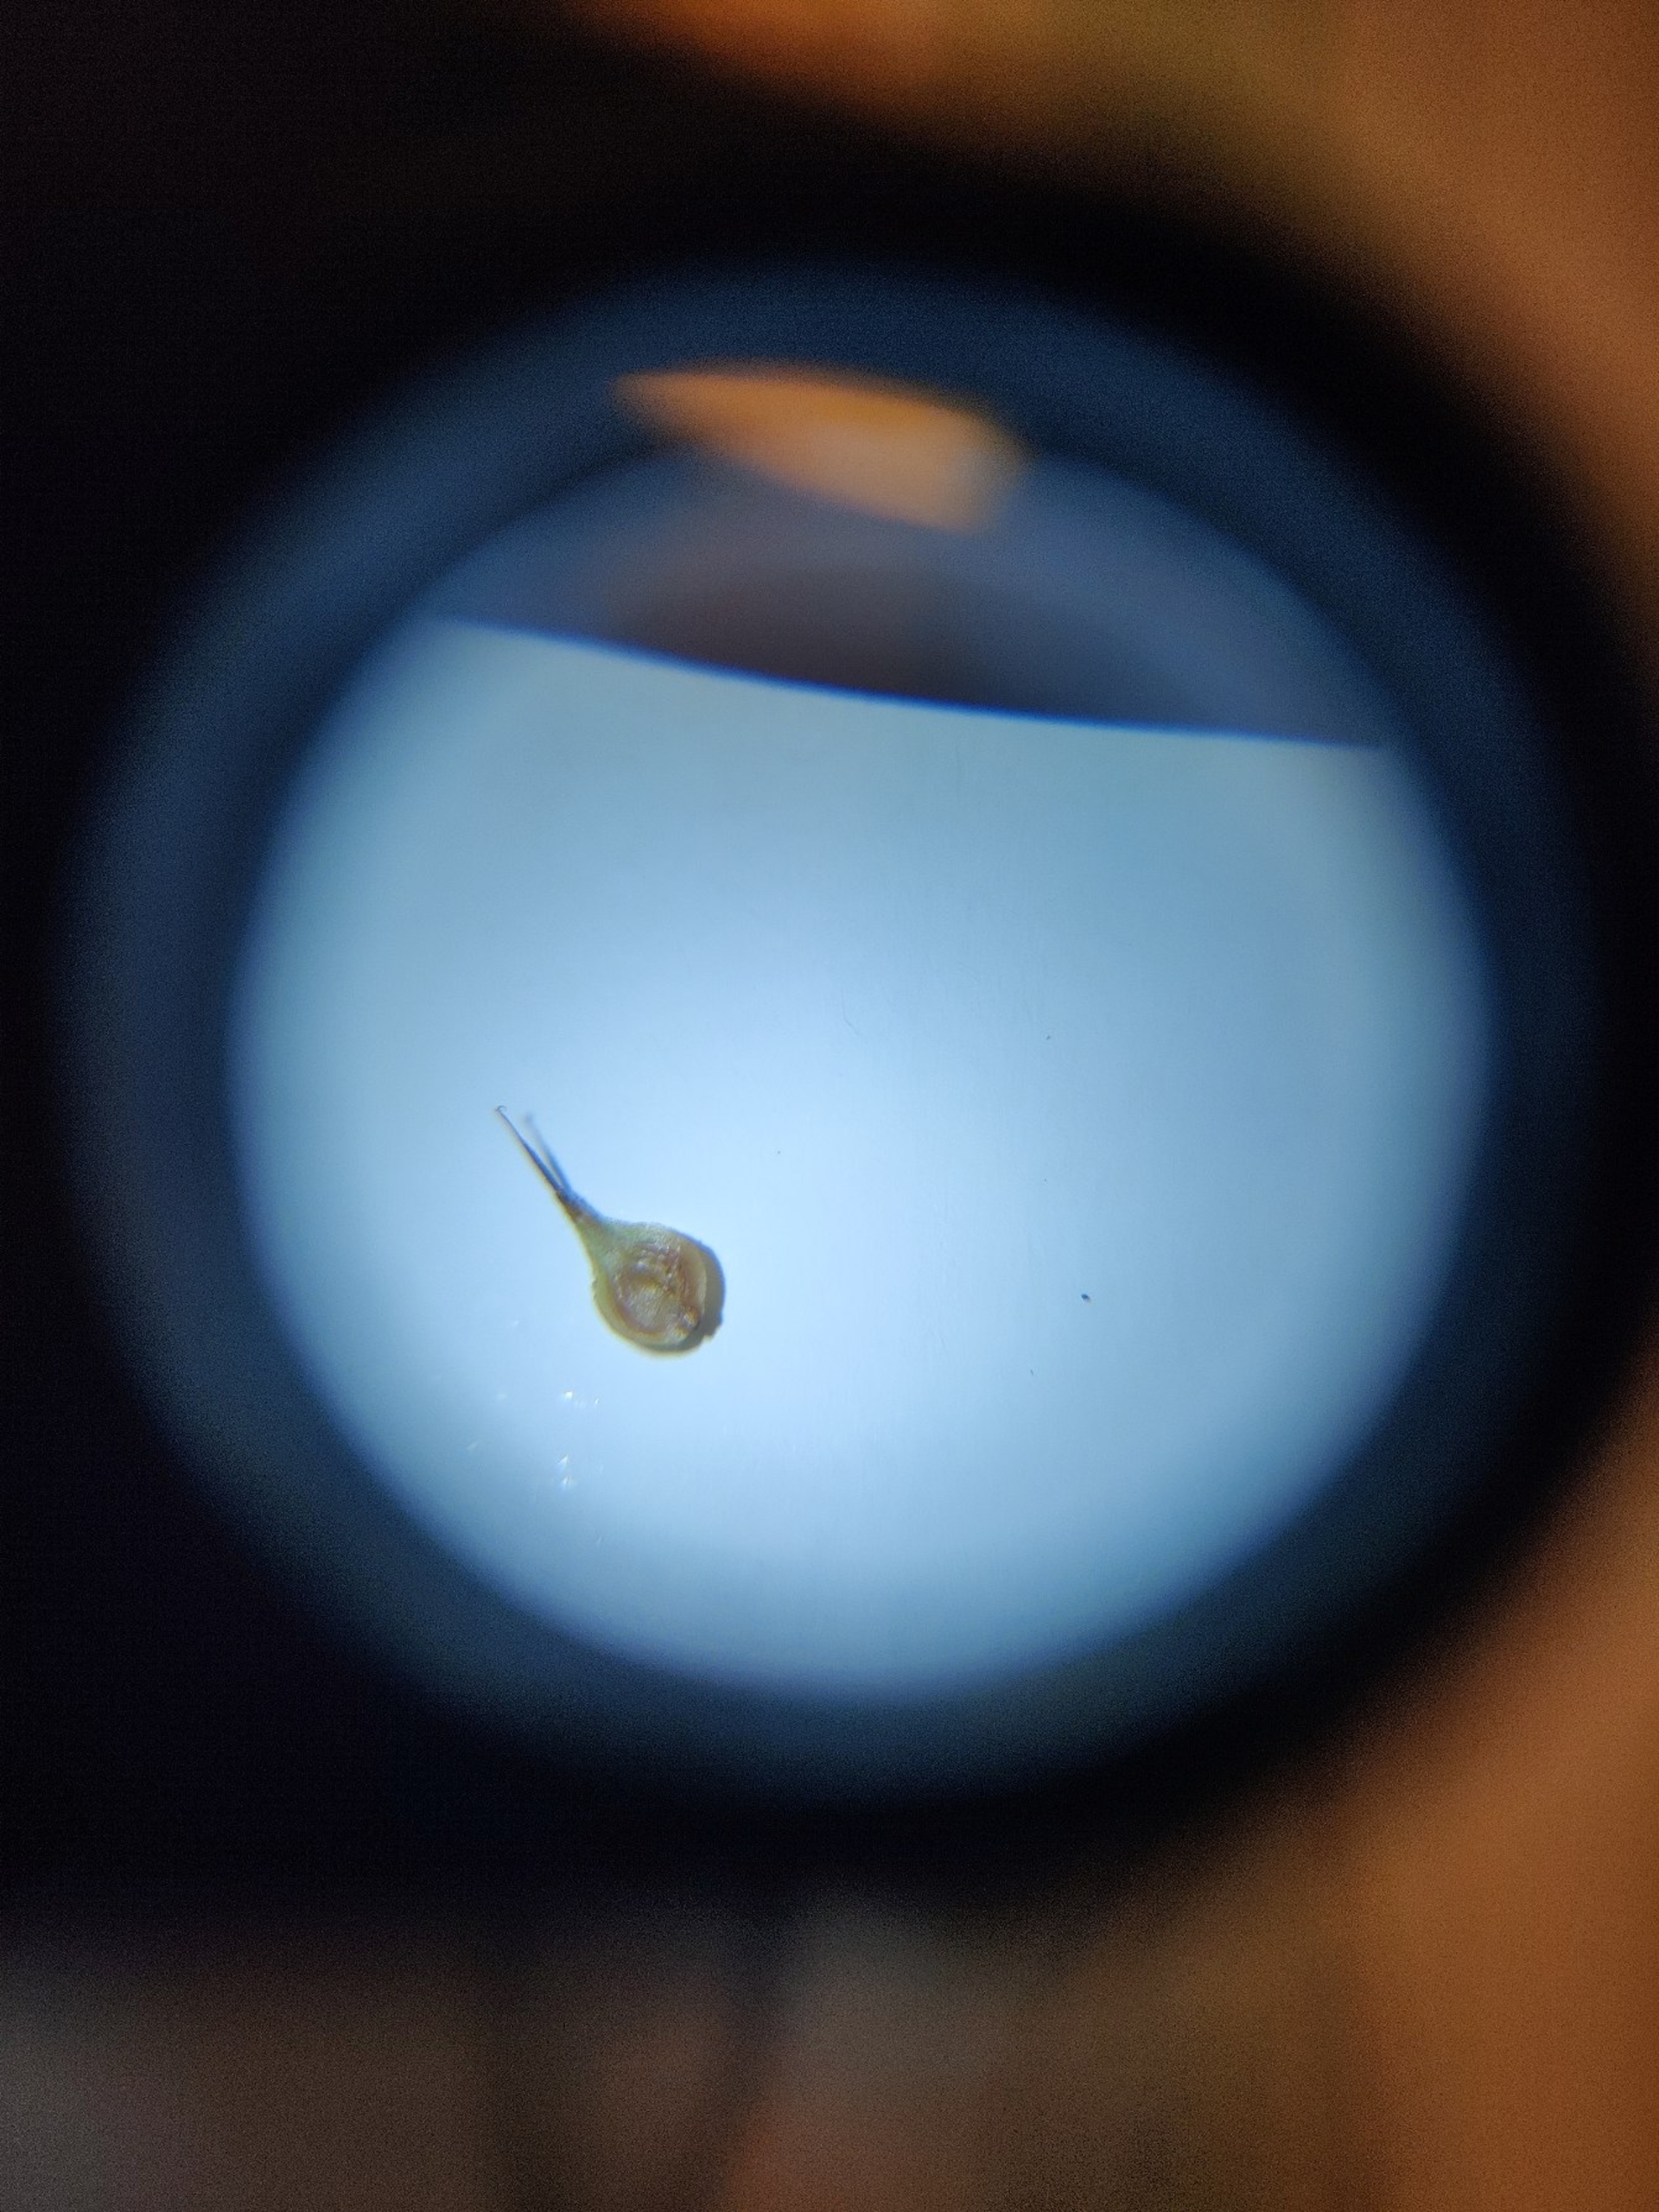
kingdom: Plantae
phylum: Tracheophyta
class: Liliopsida
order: Poales
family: Cyperaceae
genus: Carex
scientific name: Carex leporina
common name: Hare-star
